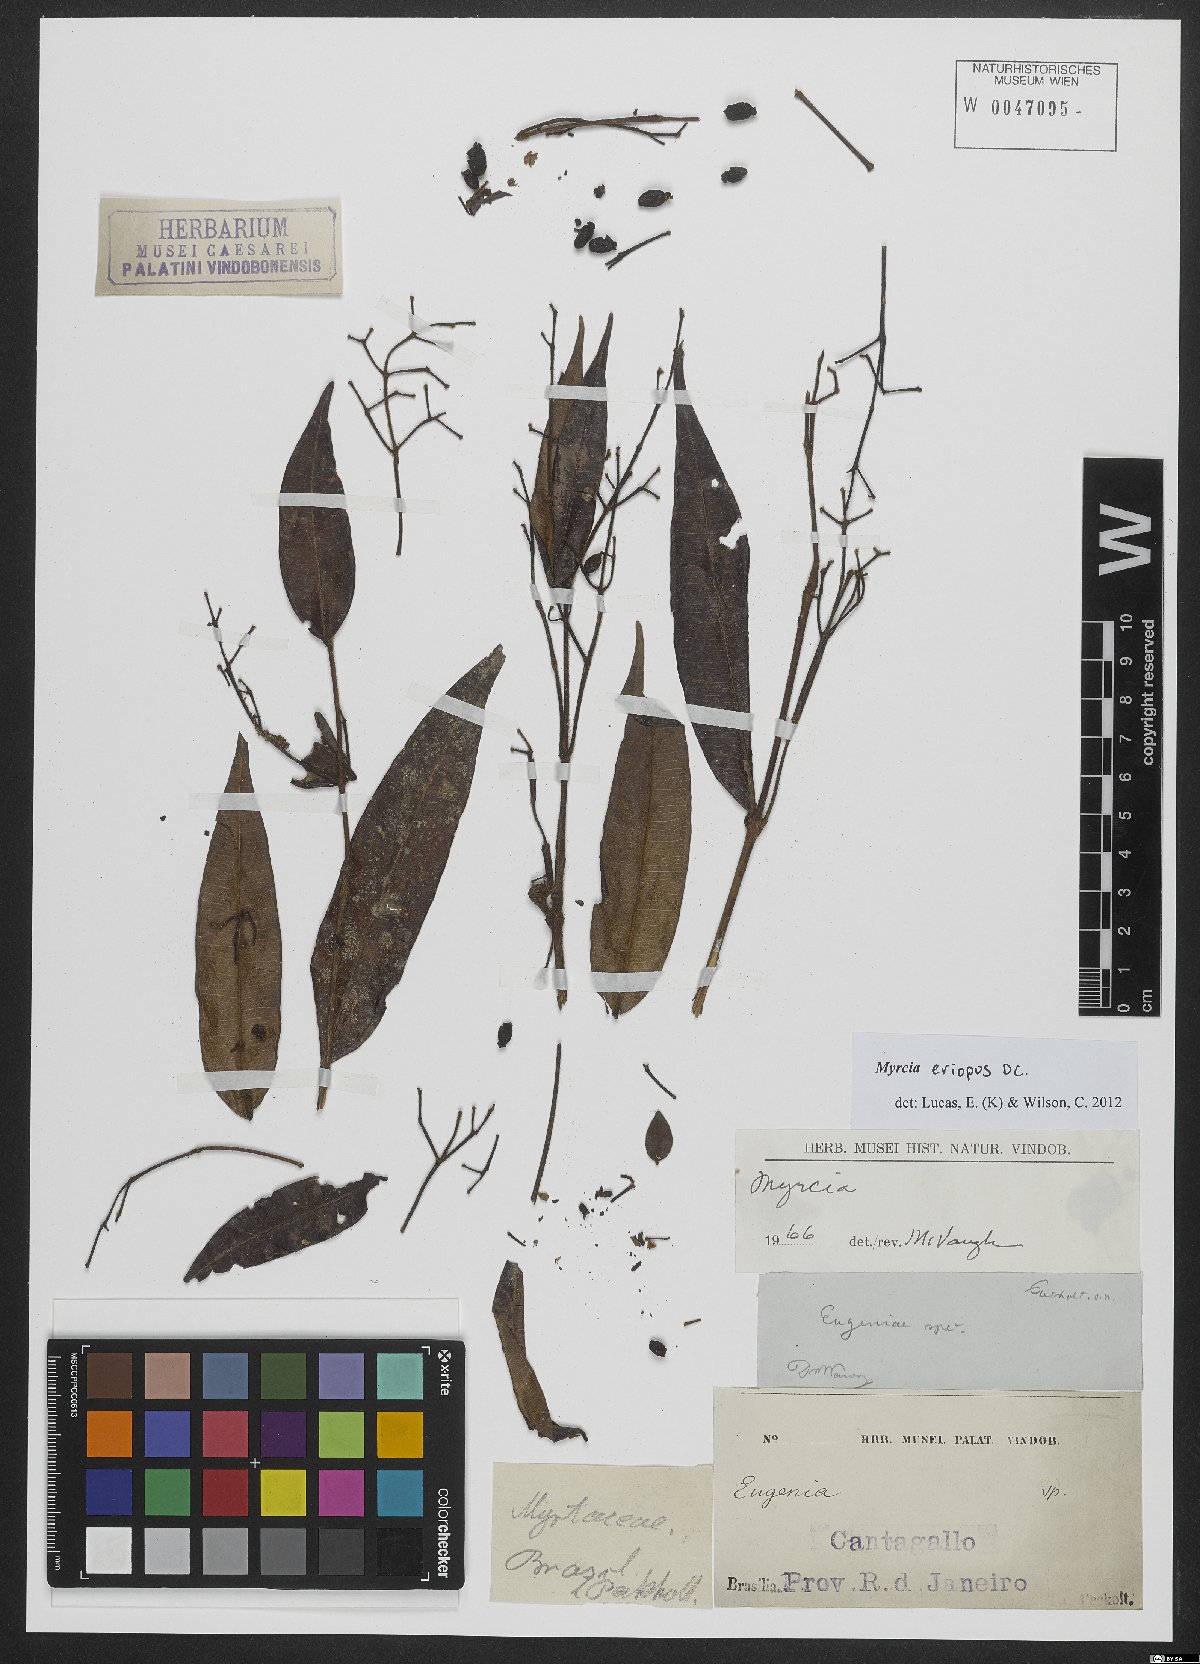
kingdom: Plantae
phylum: Tracheophyta
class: Magnoliopsida
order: Myrtales
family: Myrtaceae
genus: Myrcia
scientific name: Myrcia eriopus
